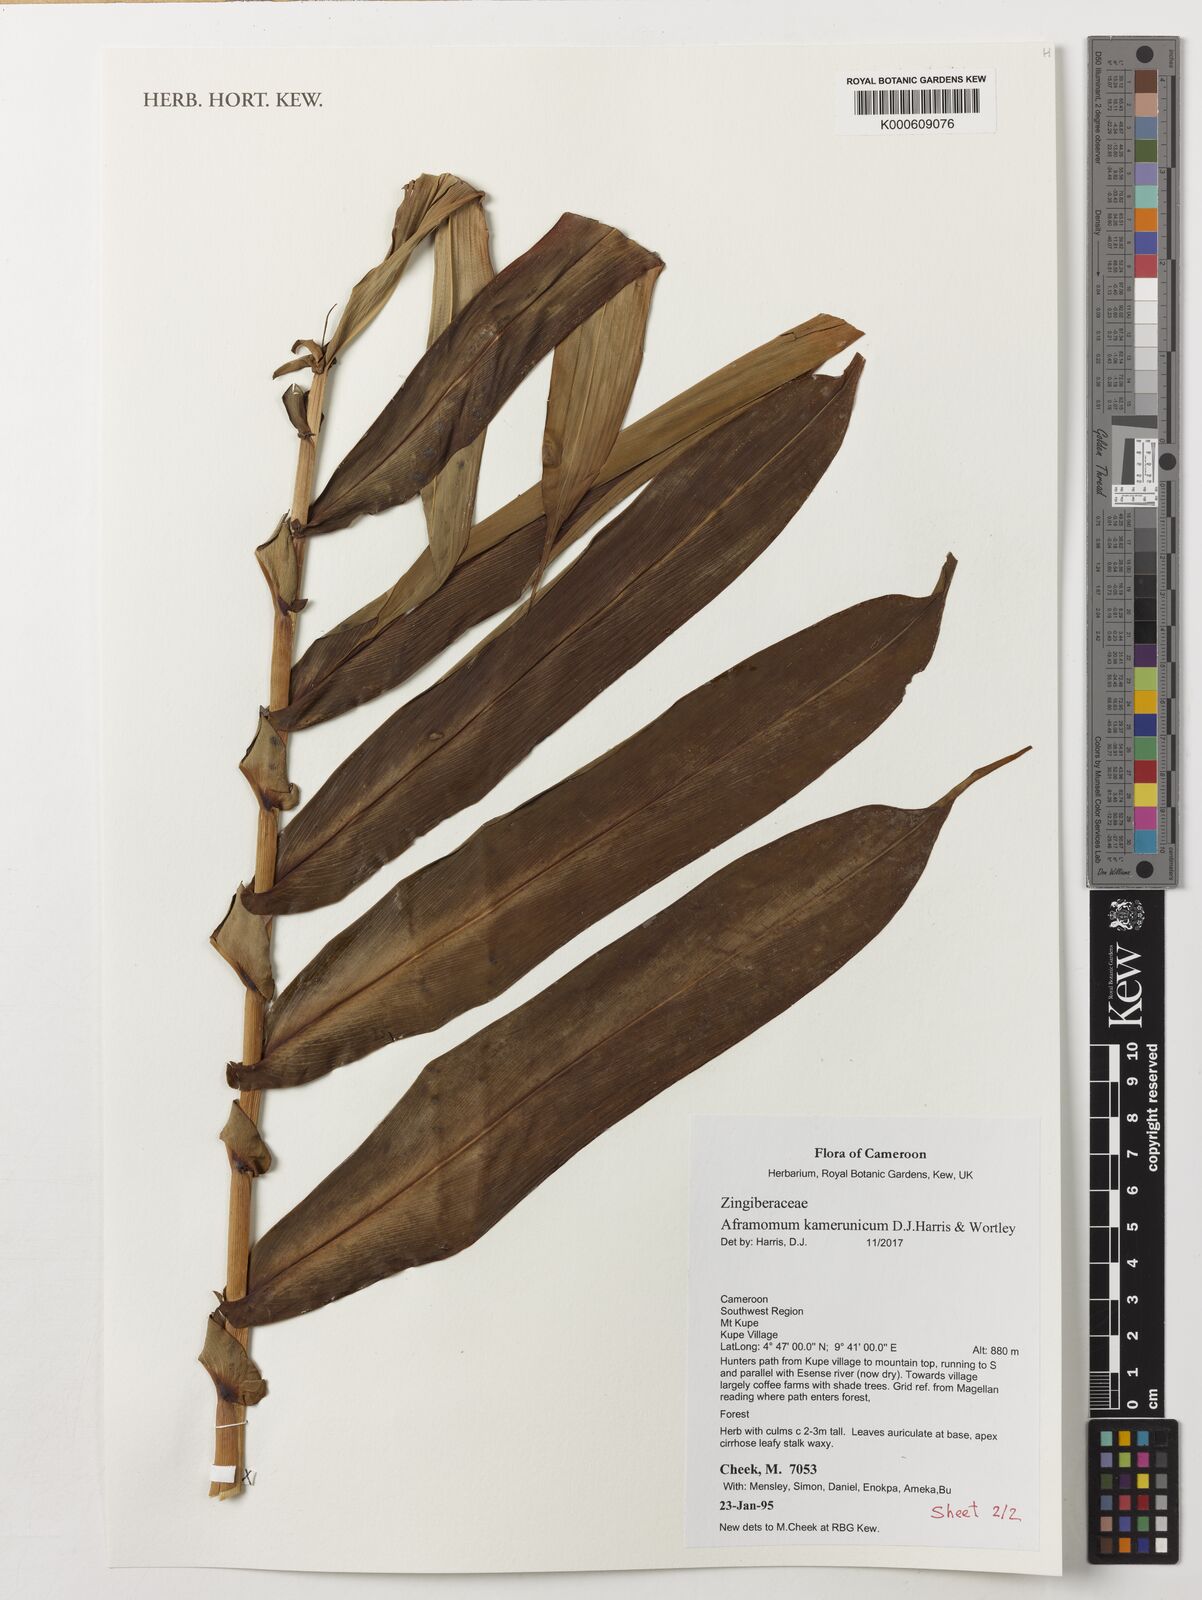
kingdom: Plantae
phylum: Tracheophyta
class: Liliopsida
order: Zingiberales
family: Zingiberaceae
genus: Aframomum
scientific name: Aframomum kamerunicum
